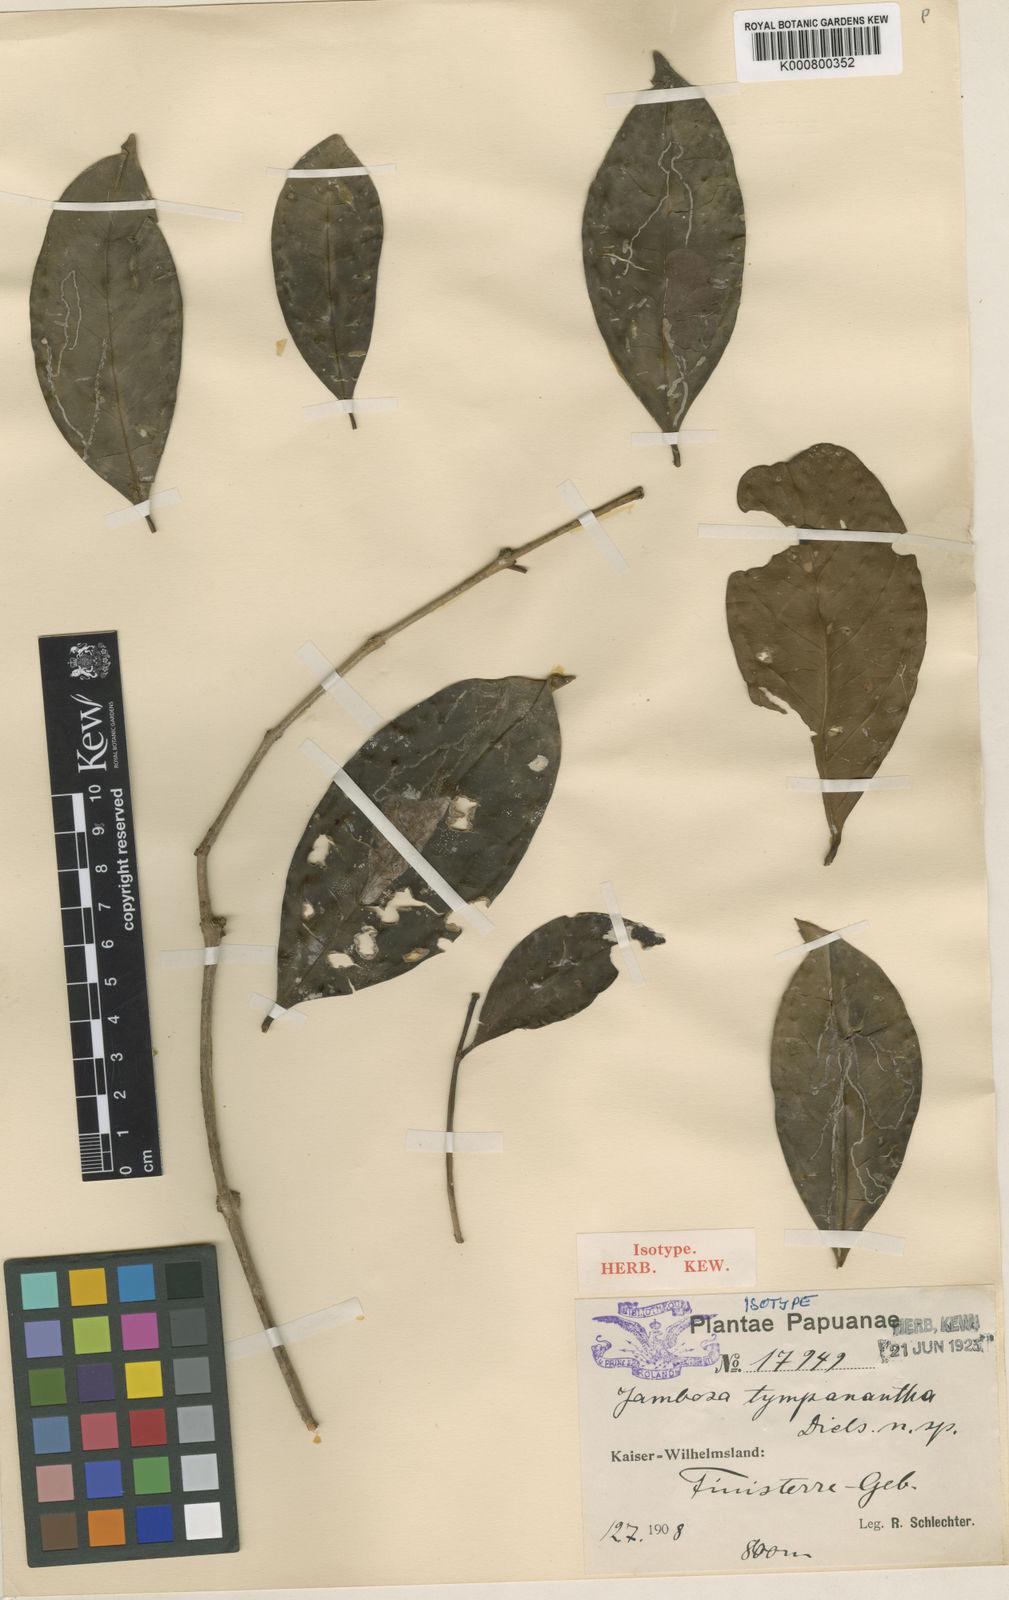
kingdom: Plantae
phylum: Tracheophyta
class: Magnoliopsida
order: Myrtales
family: Myrtaceae
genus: Syzygium
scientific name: Syzygium tympananthum
